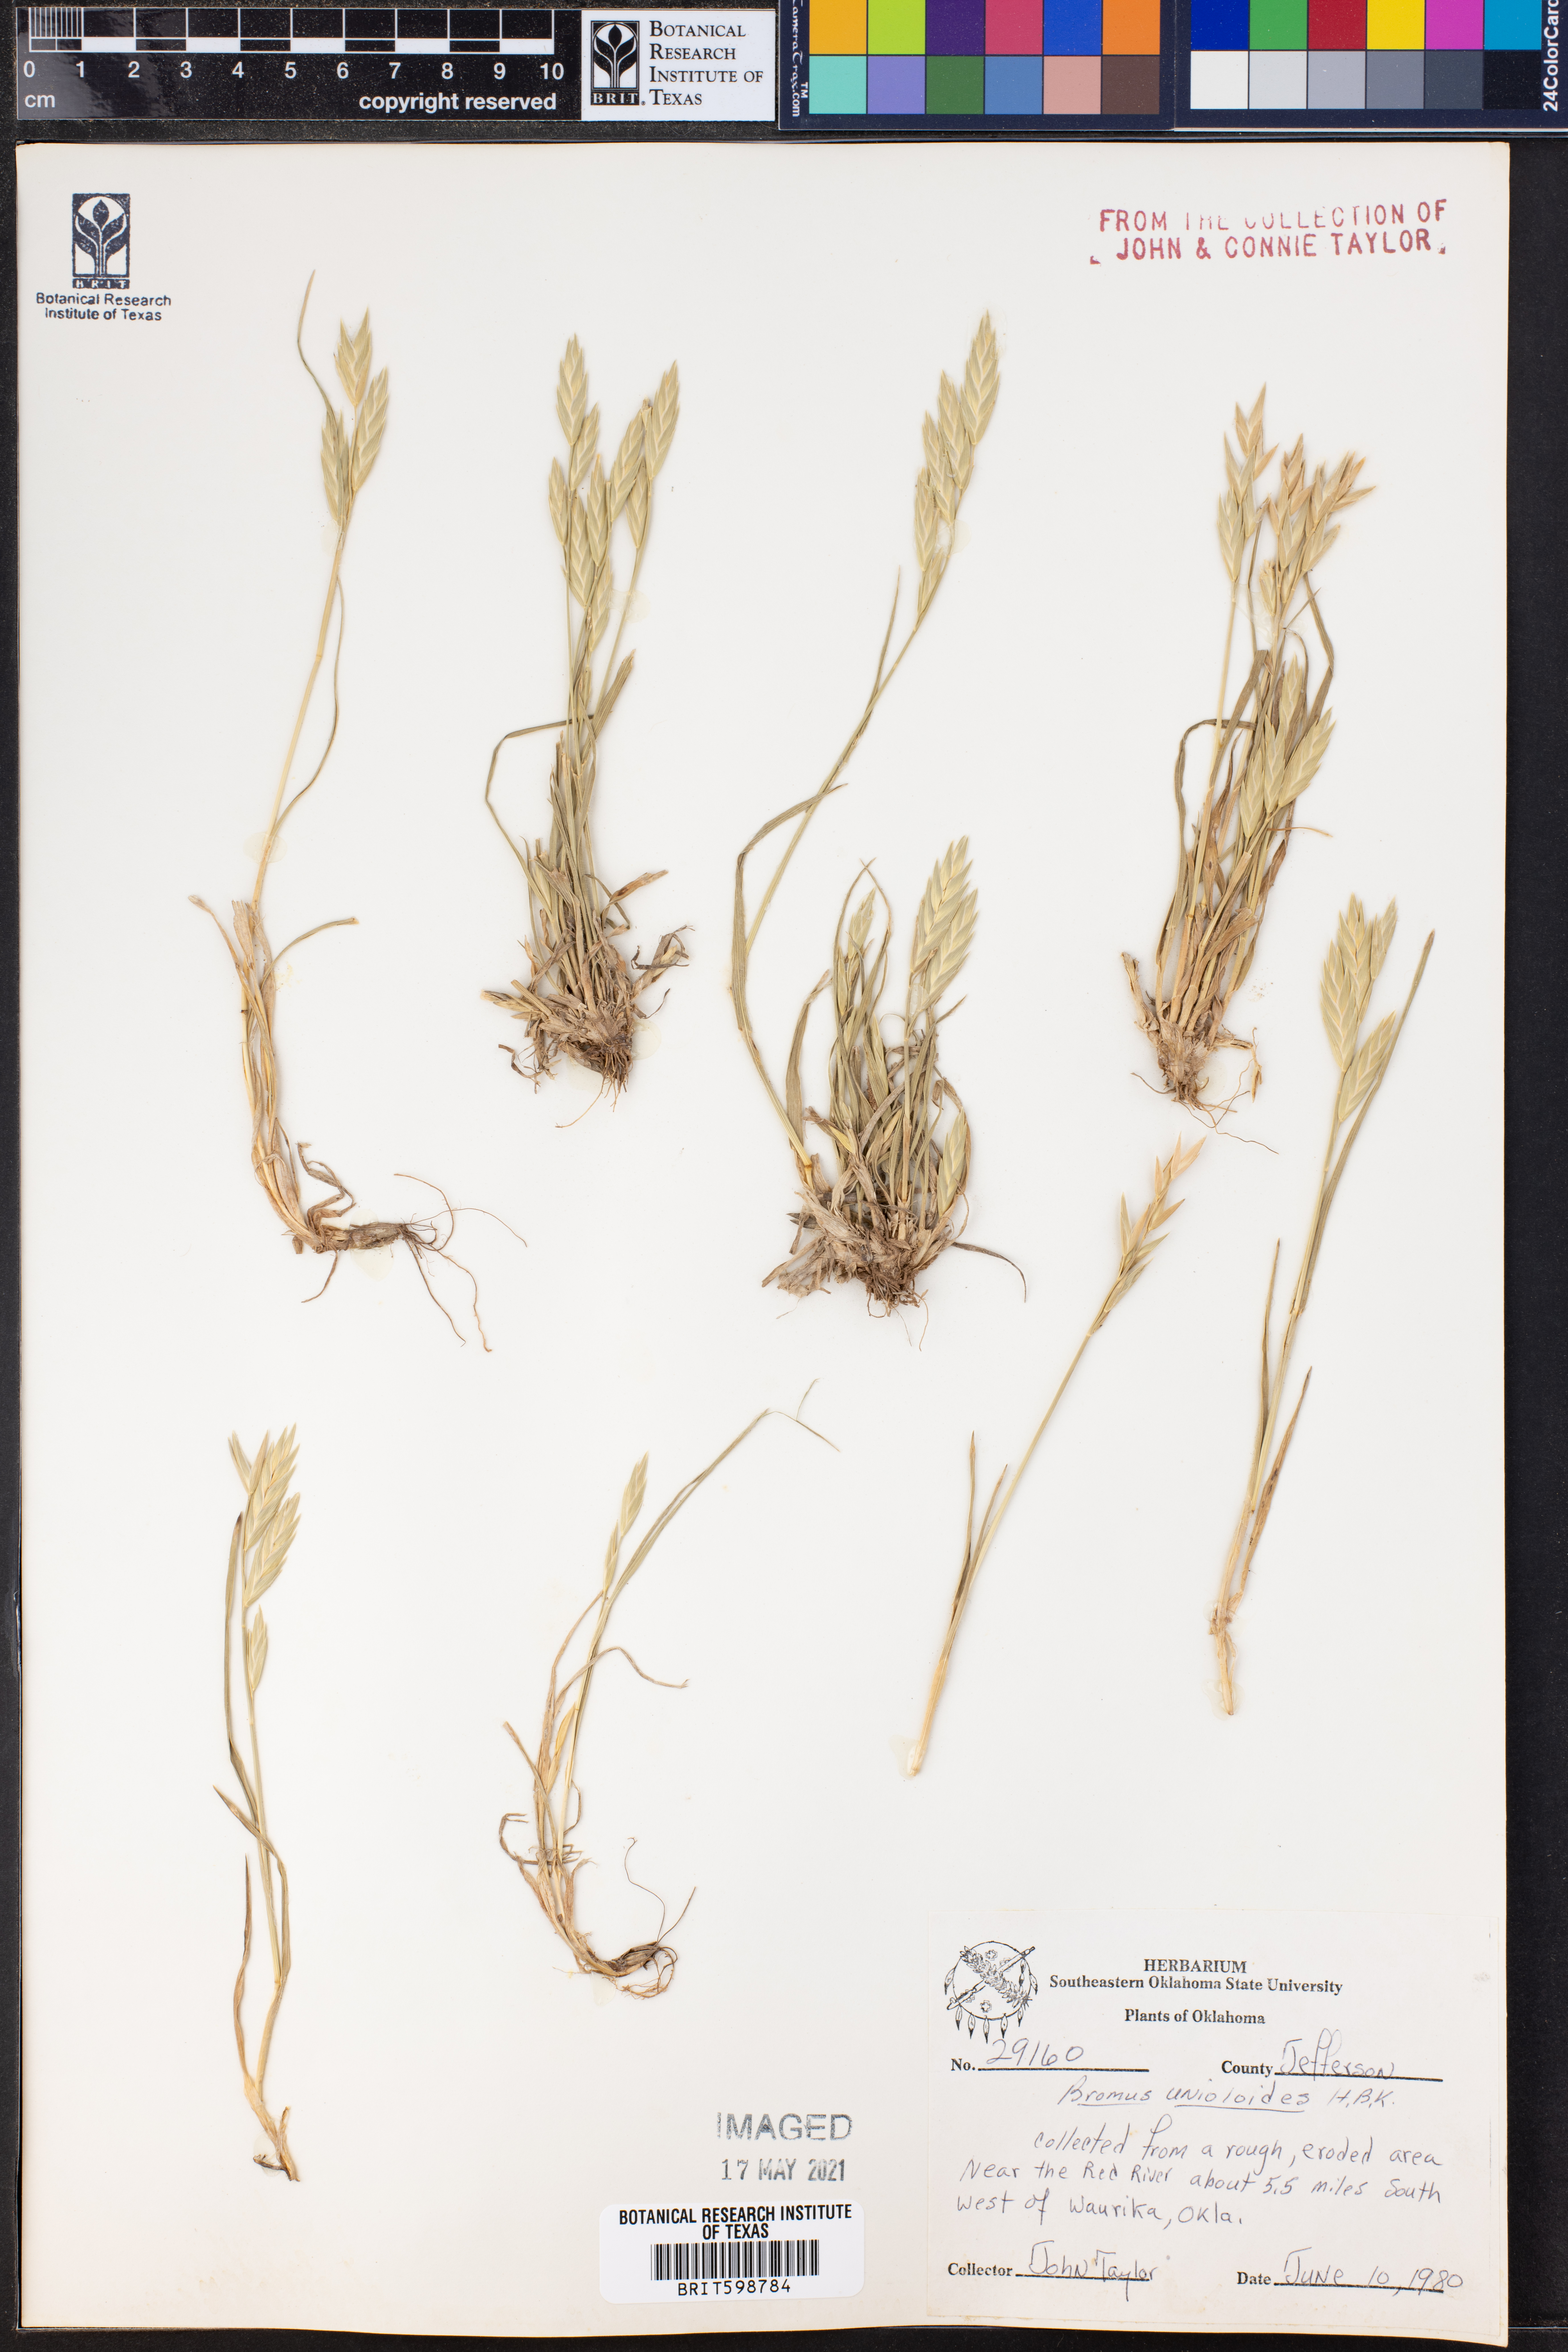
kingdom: Plantae
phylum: Tracheophyta
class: Liliopsida
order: Poales
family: Poaceae
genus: Bromus
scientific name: Bromus catharticus
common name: Rescuegrass
